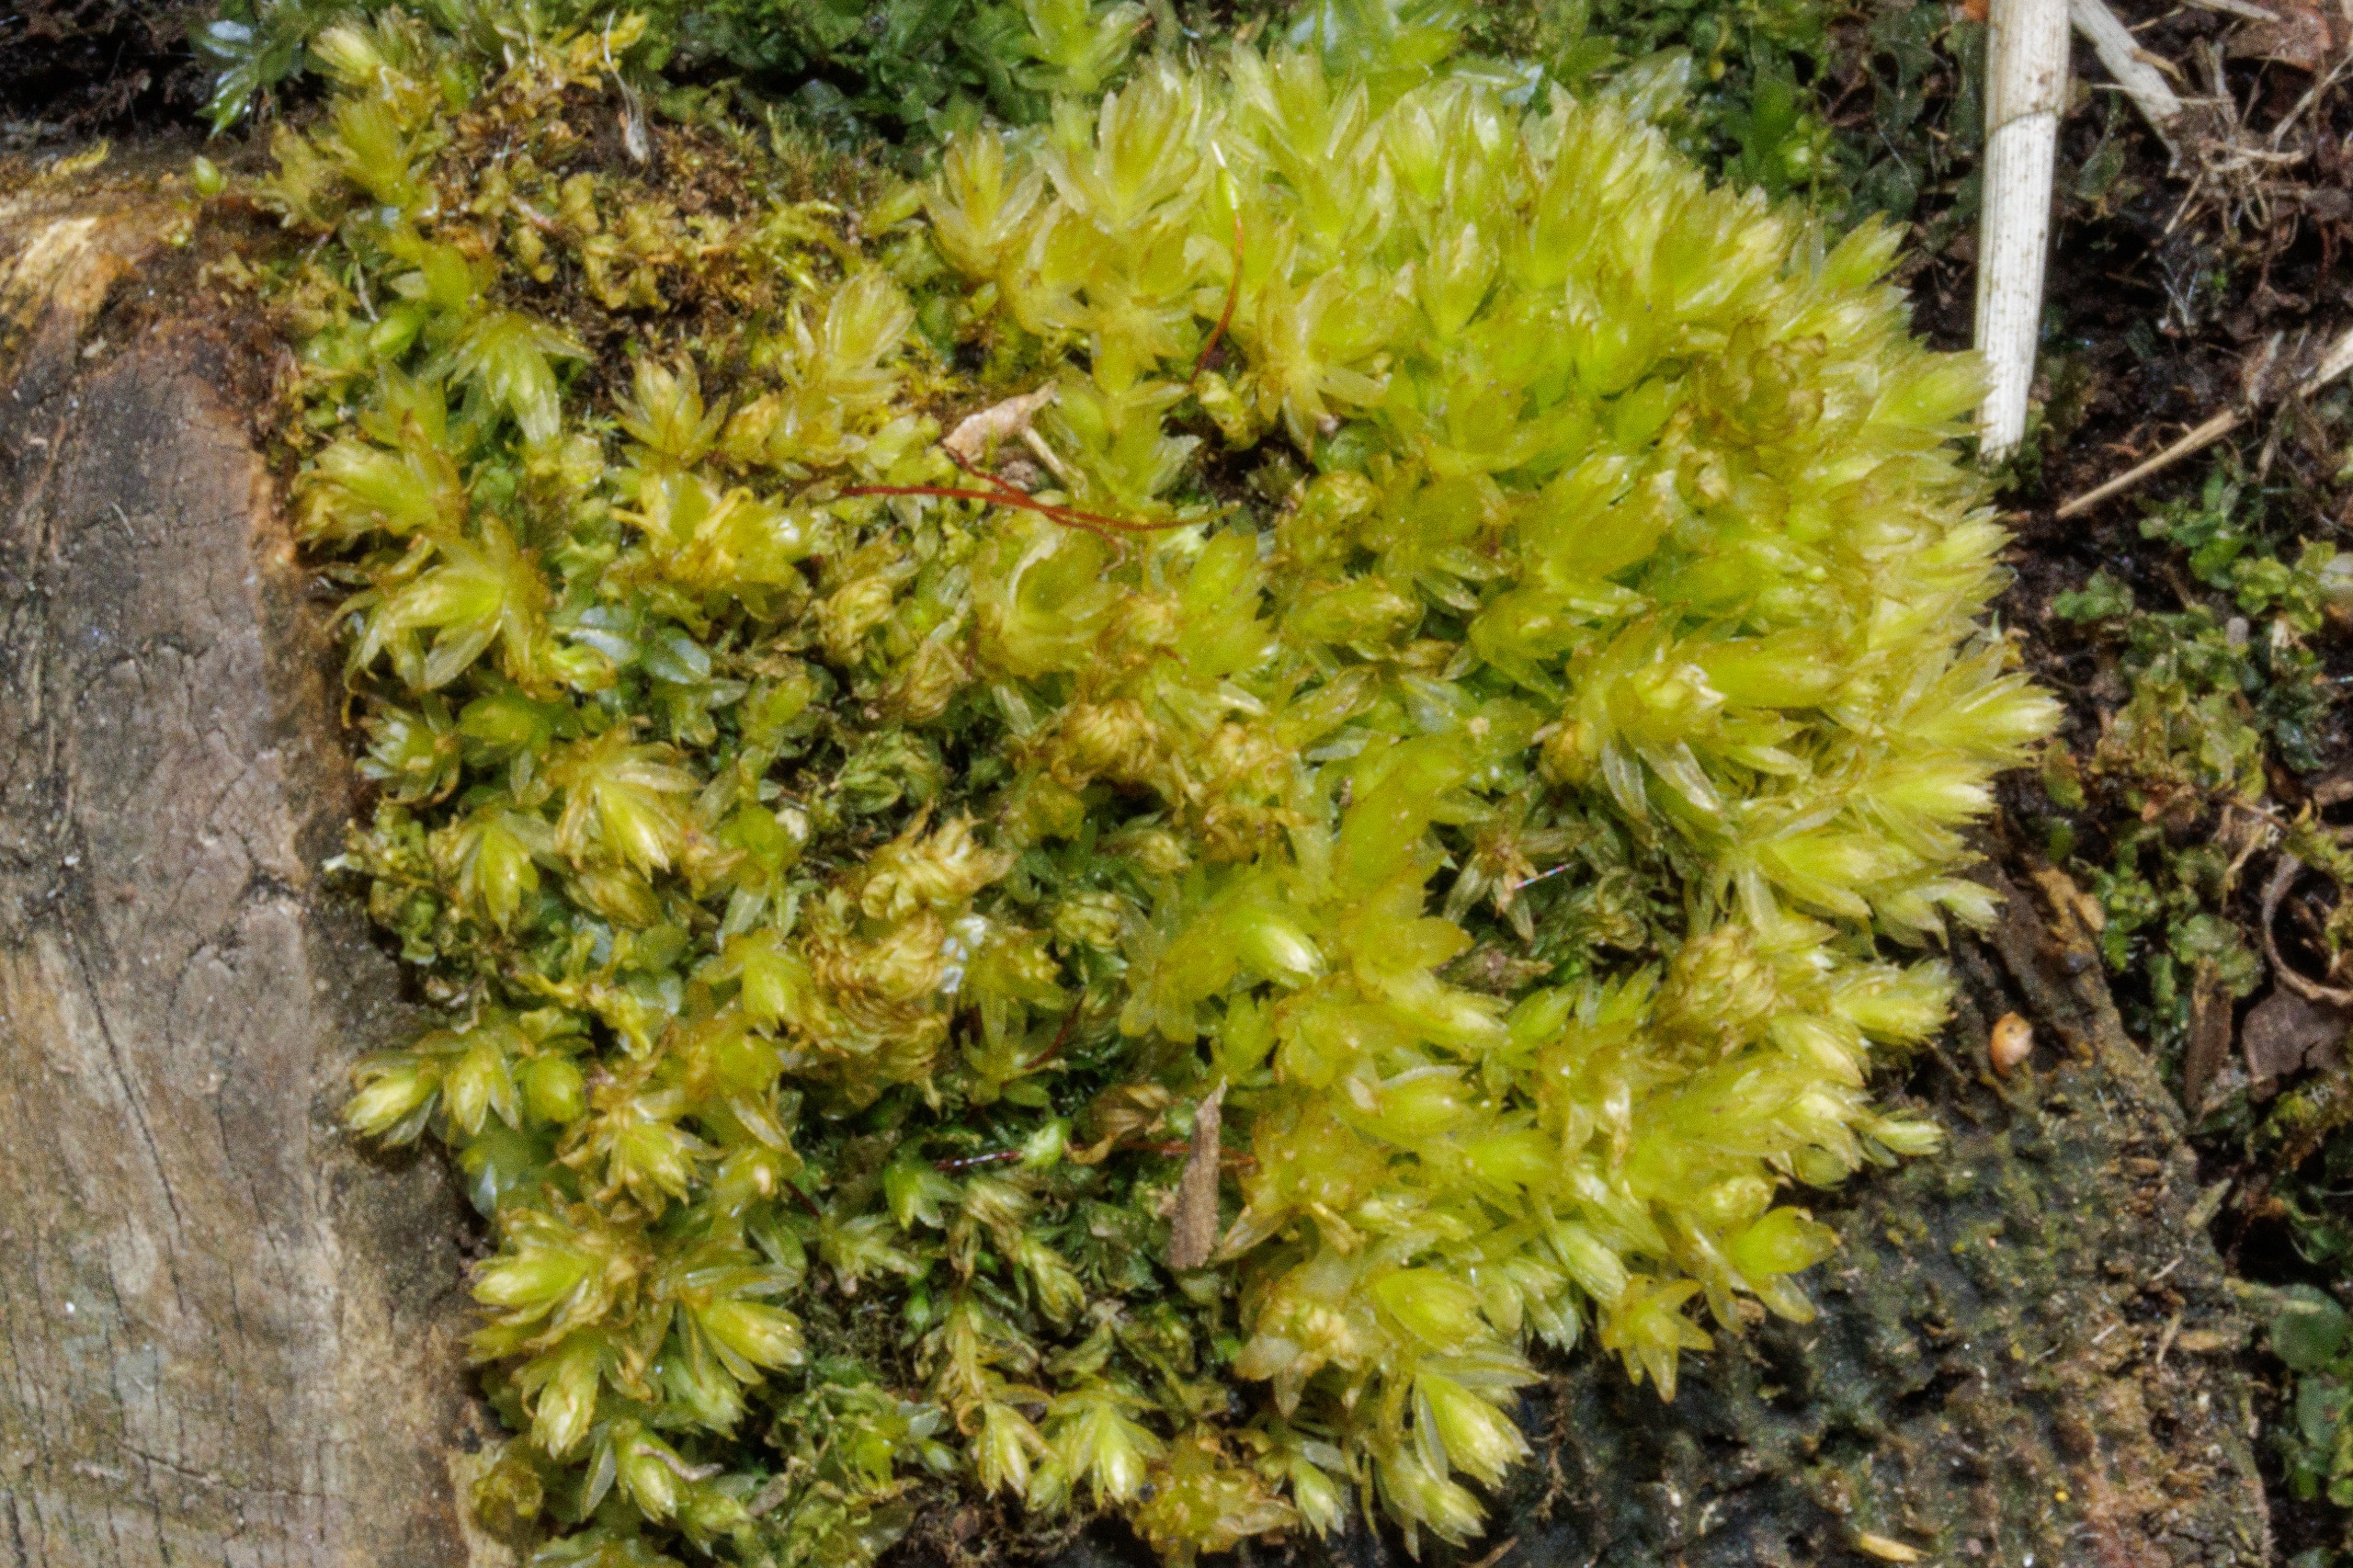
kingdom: Plantae
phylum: Bryophyta
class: Bryopsida
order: Bryales
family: Mniaceae
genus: Mnium
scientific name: Mnium hornum
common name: Brunfiltet stjernemos
